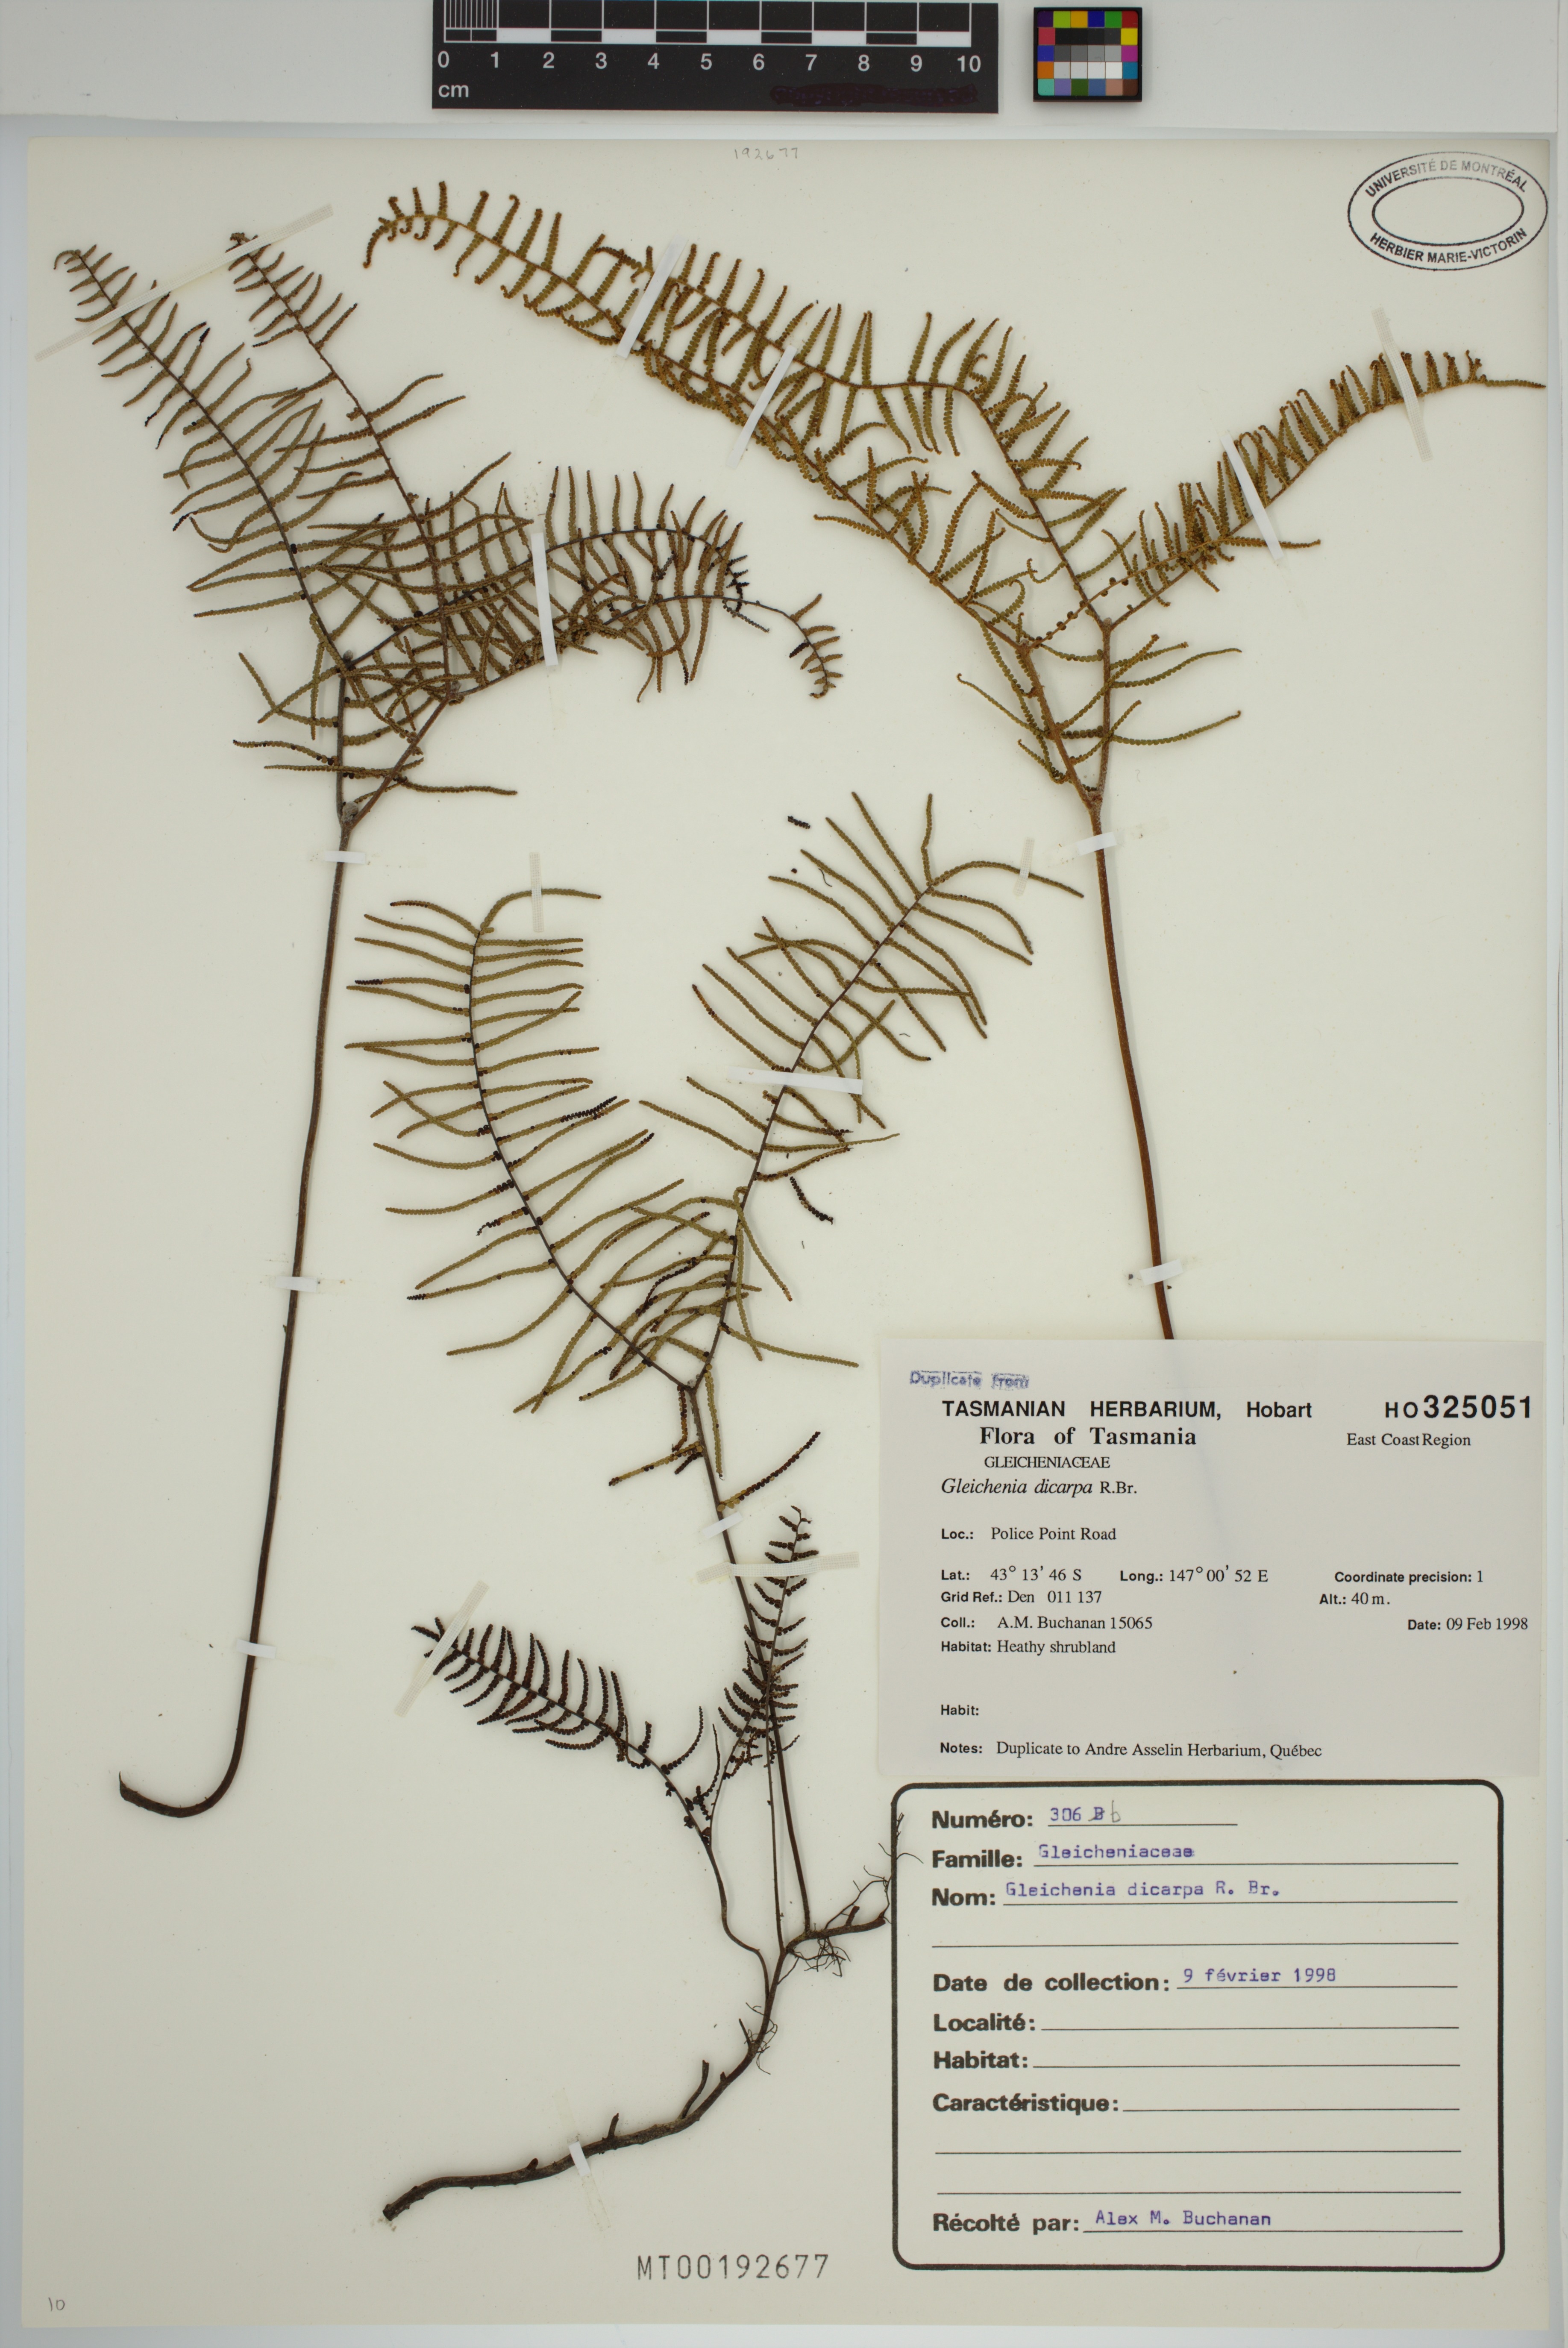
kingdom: Plantae
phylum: Tracheophyta
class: Polypodiopsida
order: Gleicheniales
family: Gleicheniaceae
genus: Gleichenia
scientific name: Gleichenia dicarpa
